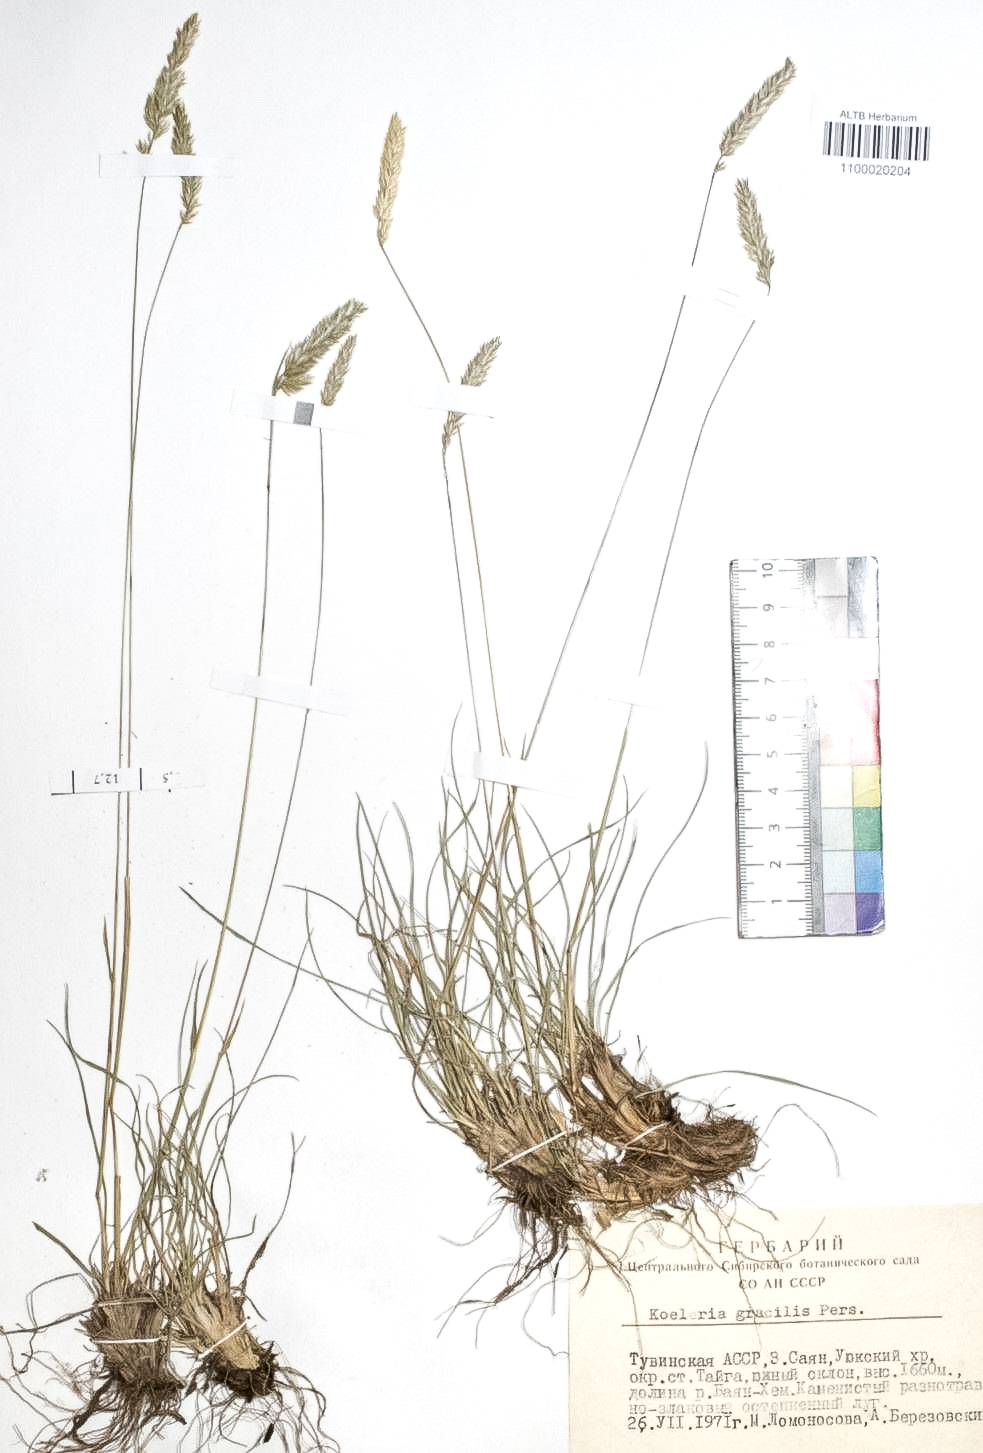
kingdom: Plantae
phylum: Tracheophyta
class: Liliopsida
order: Poales
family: Poaceae
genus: Koeleria
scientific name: Koeleria macrantha
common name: Crested hair-grass
